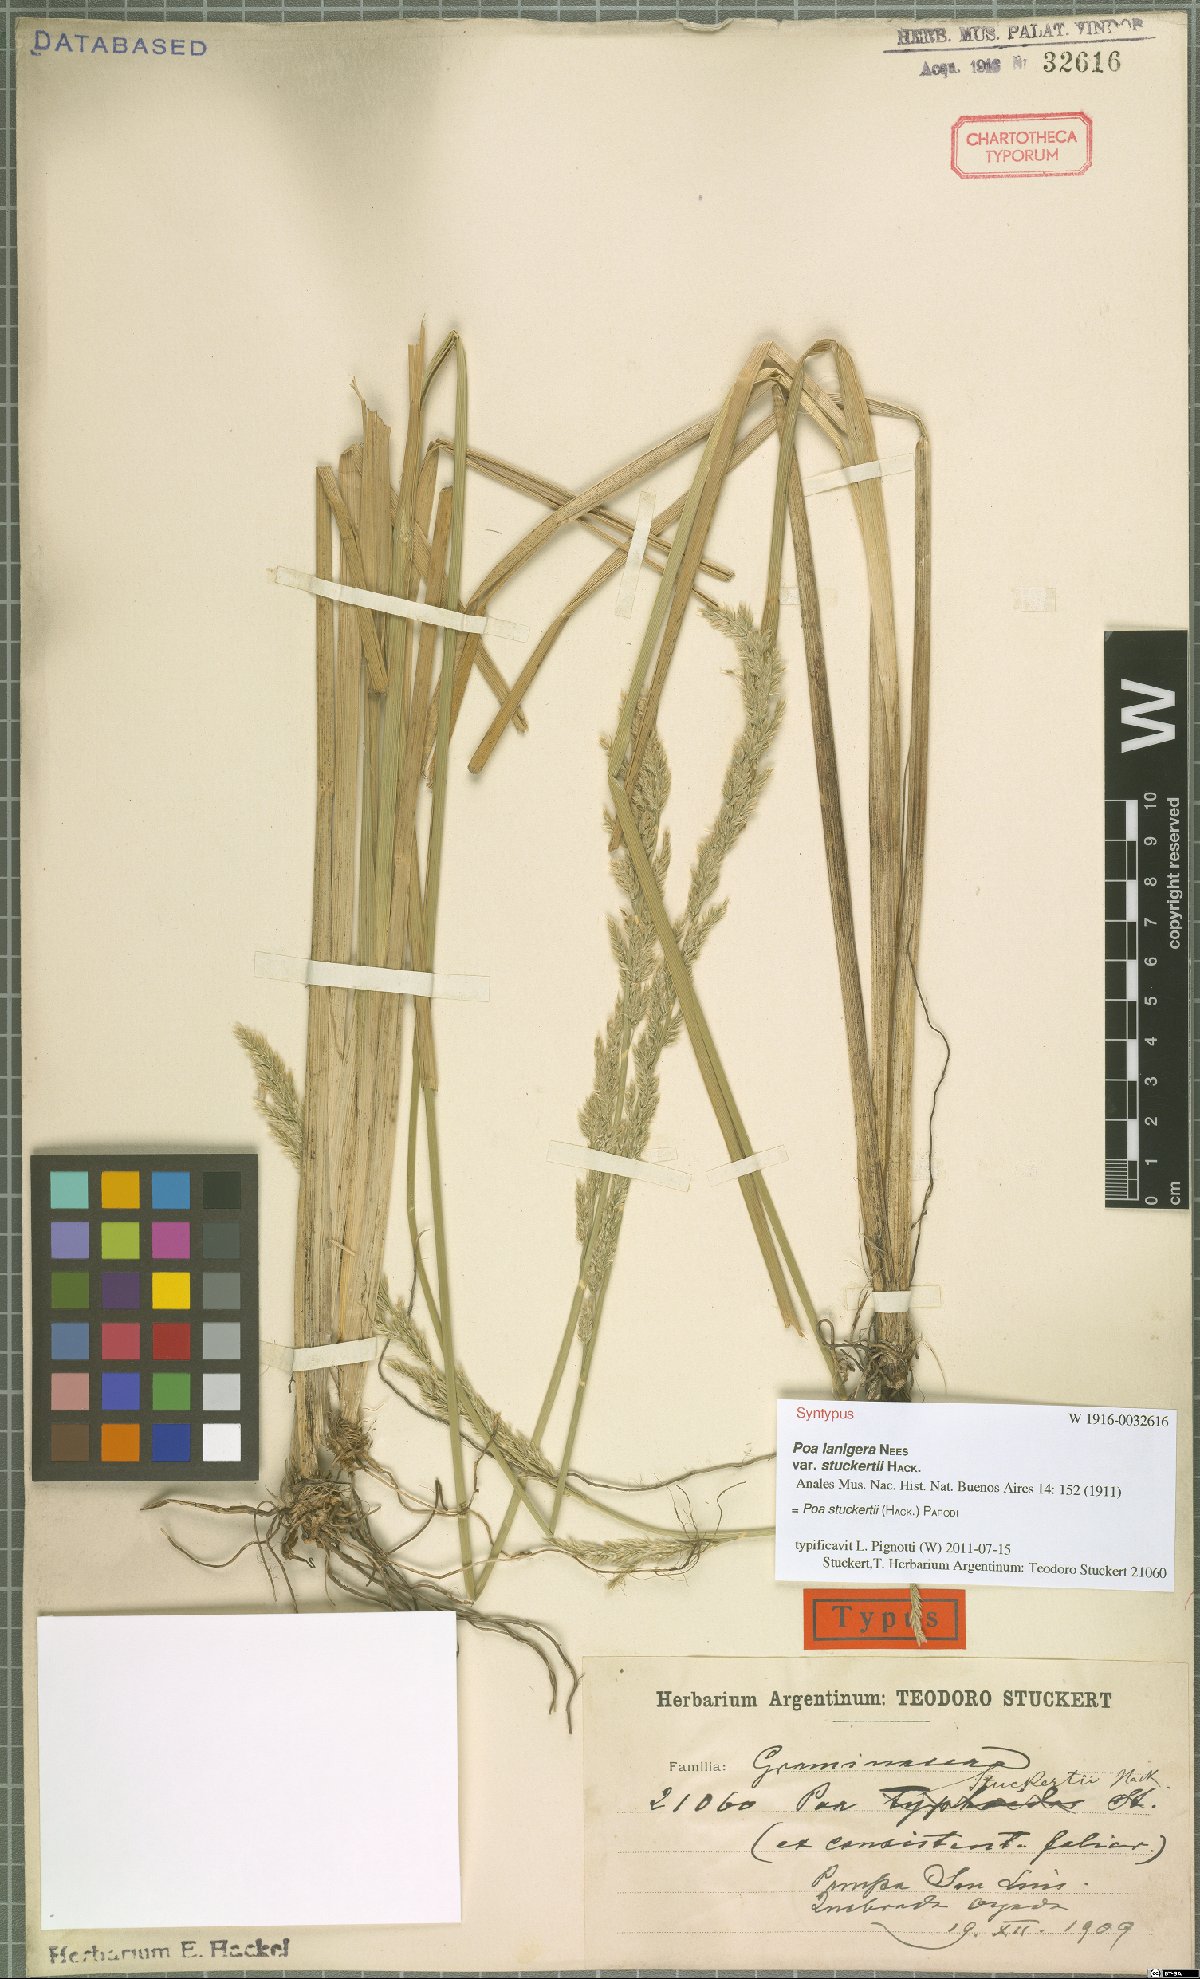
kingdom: Plantae
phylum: Tracheophyta
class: Liliopsida
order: Poales
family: Poaceae
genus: Poa
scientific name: Poa stuckertii
